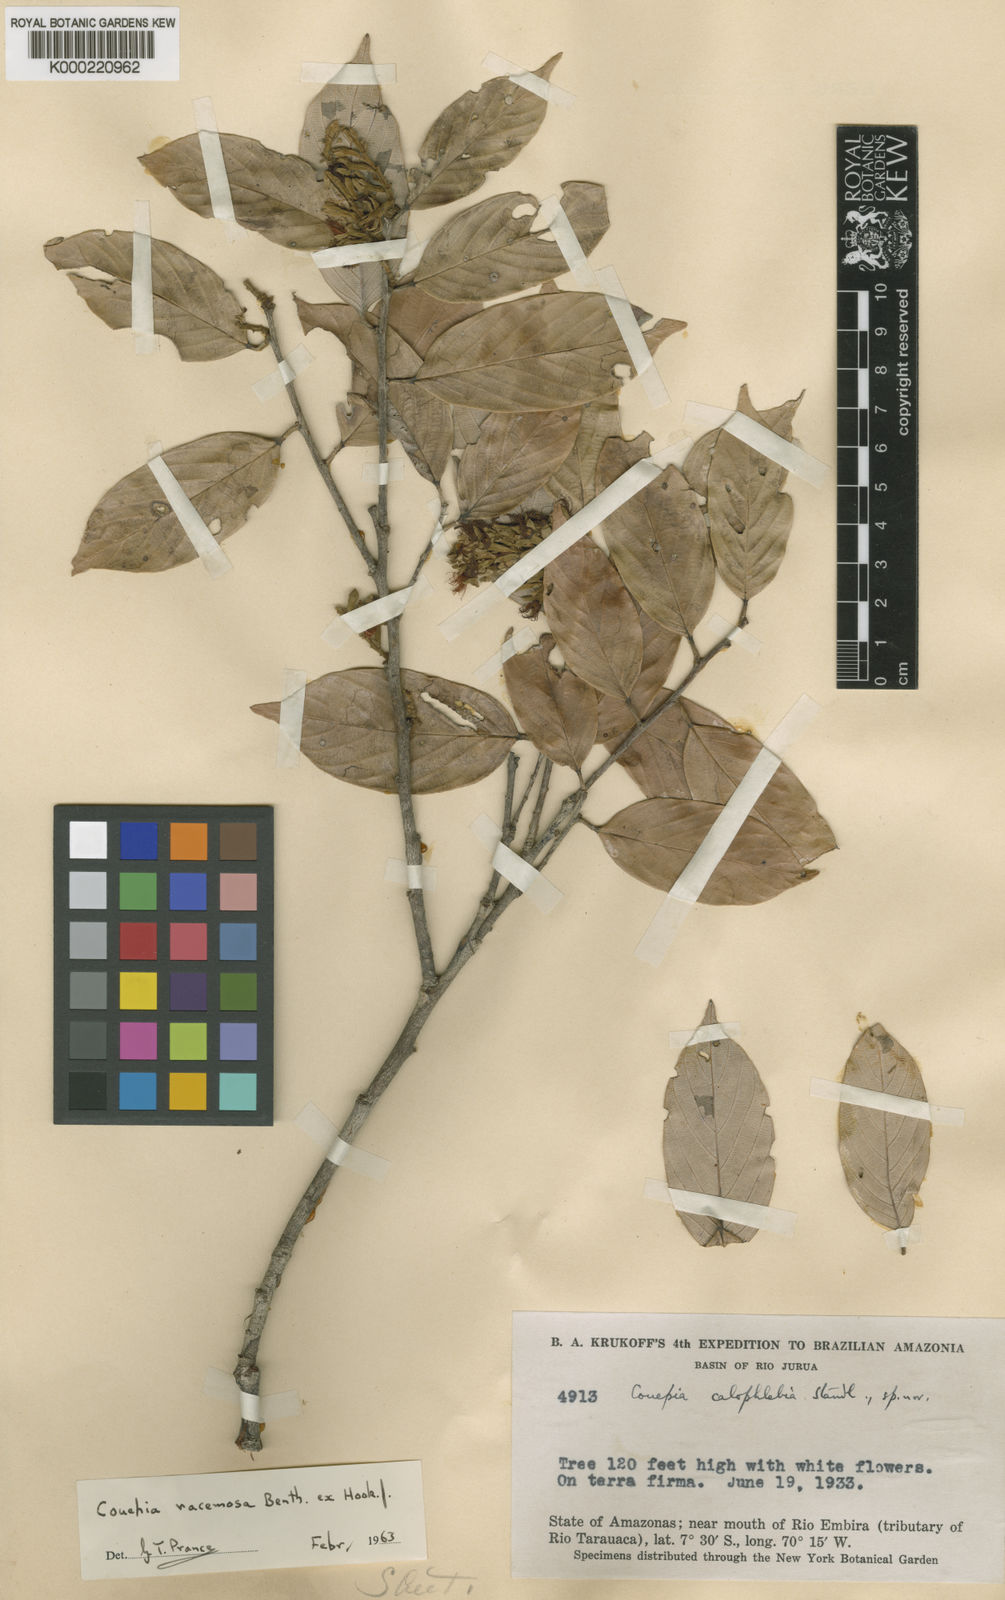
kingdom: Plantae
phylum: Tracheophyta
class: Magnoliopsida
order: Malpighiales
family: Chrysobalanaceae
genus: Gaulettia
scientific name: Gaulettia racemosa
